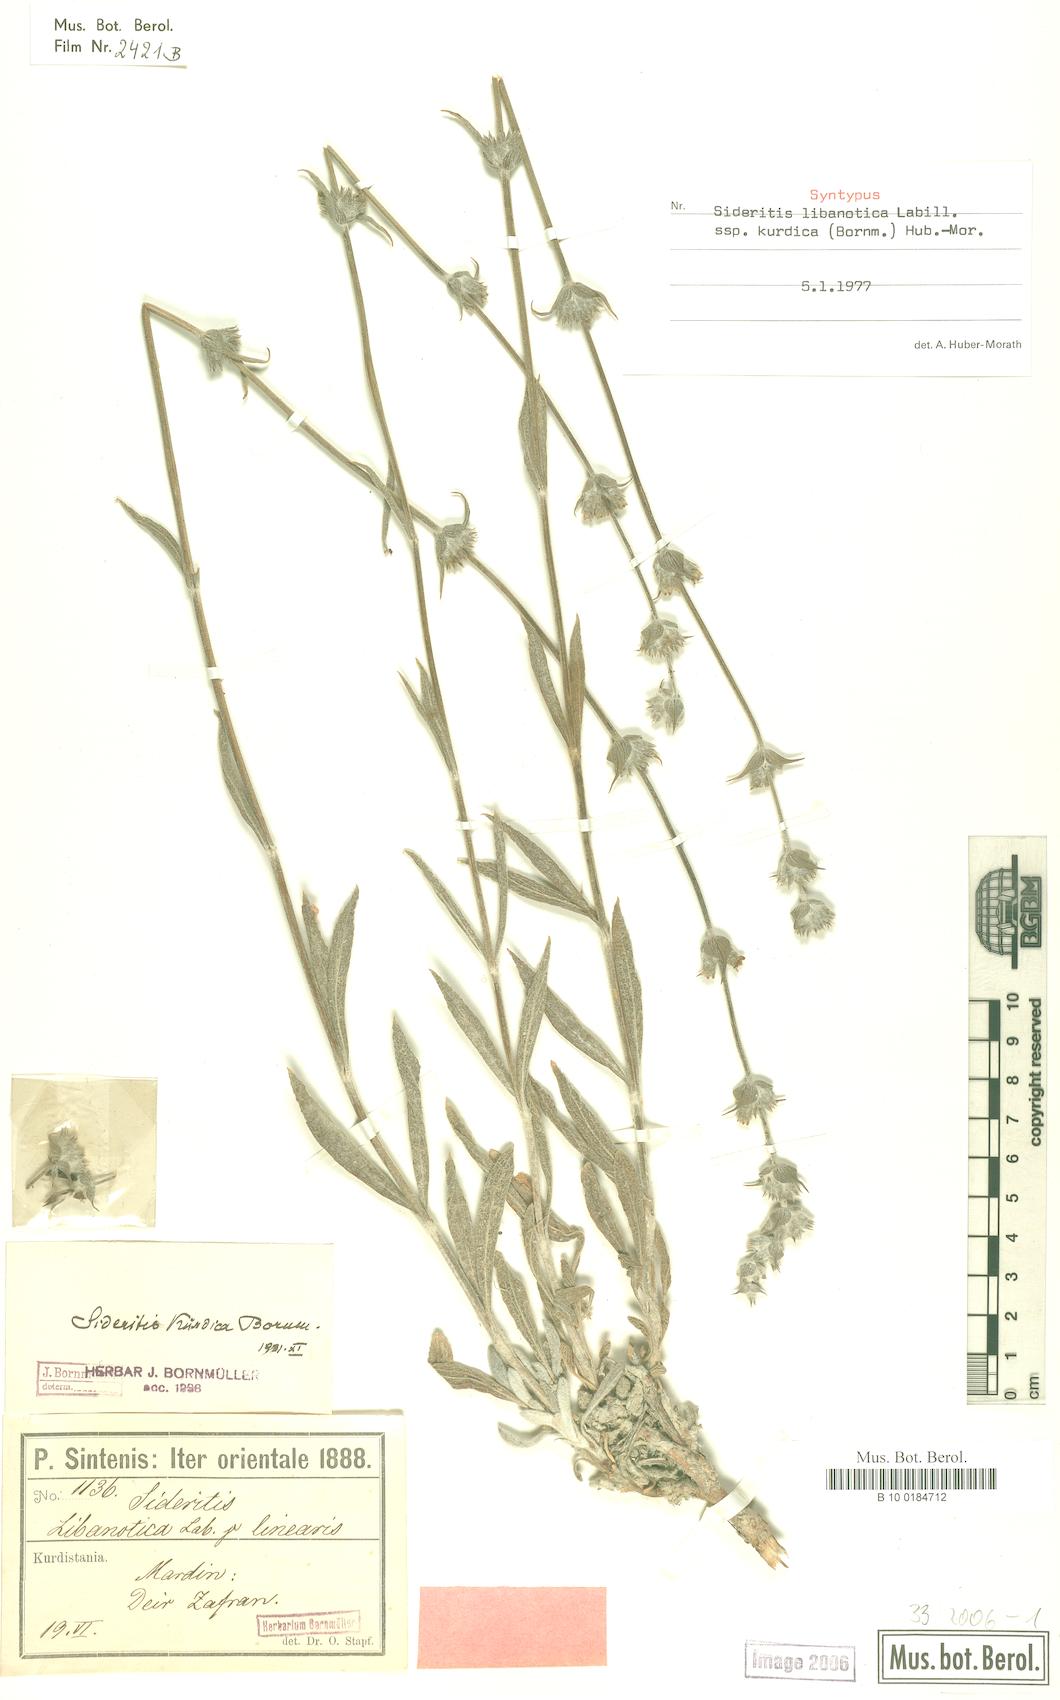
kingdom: Plantae
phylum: Tracheophyta
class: Magnoliopsida
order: Lamiales
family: Lamiaceae
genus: Sideritis
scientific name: Sideritis libanotica
